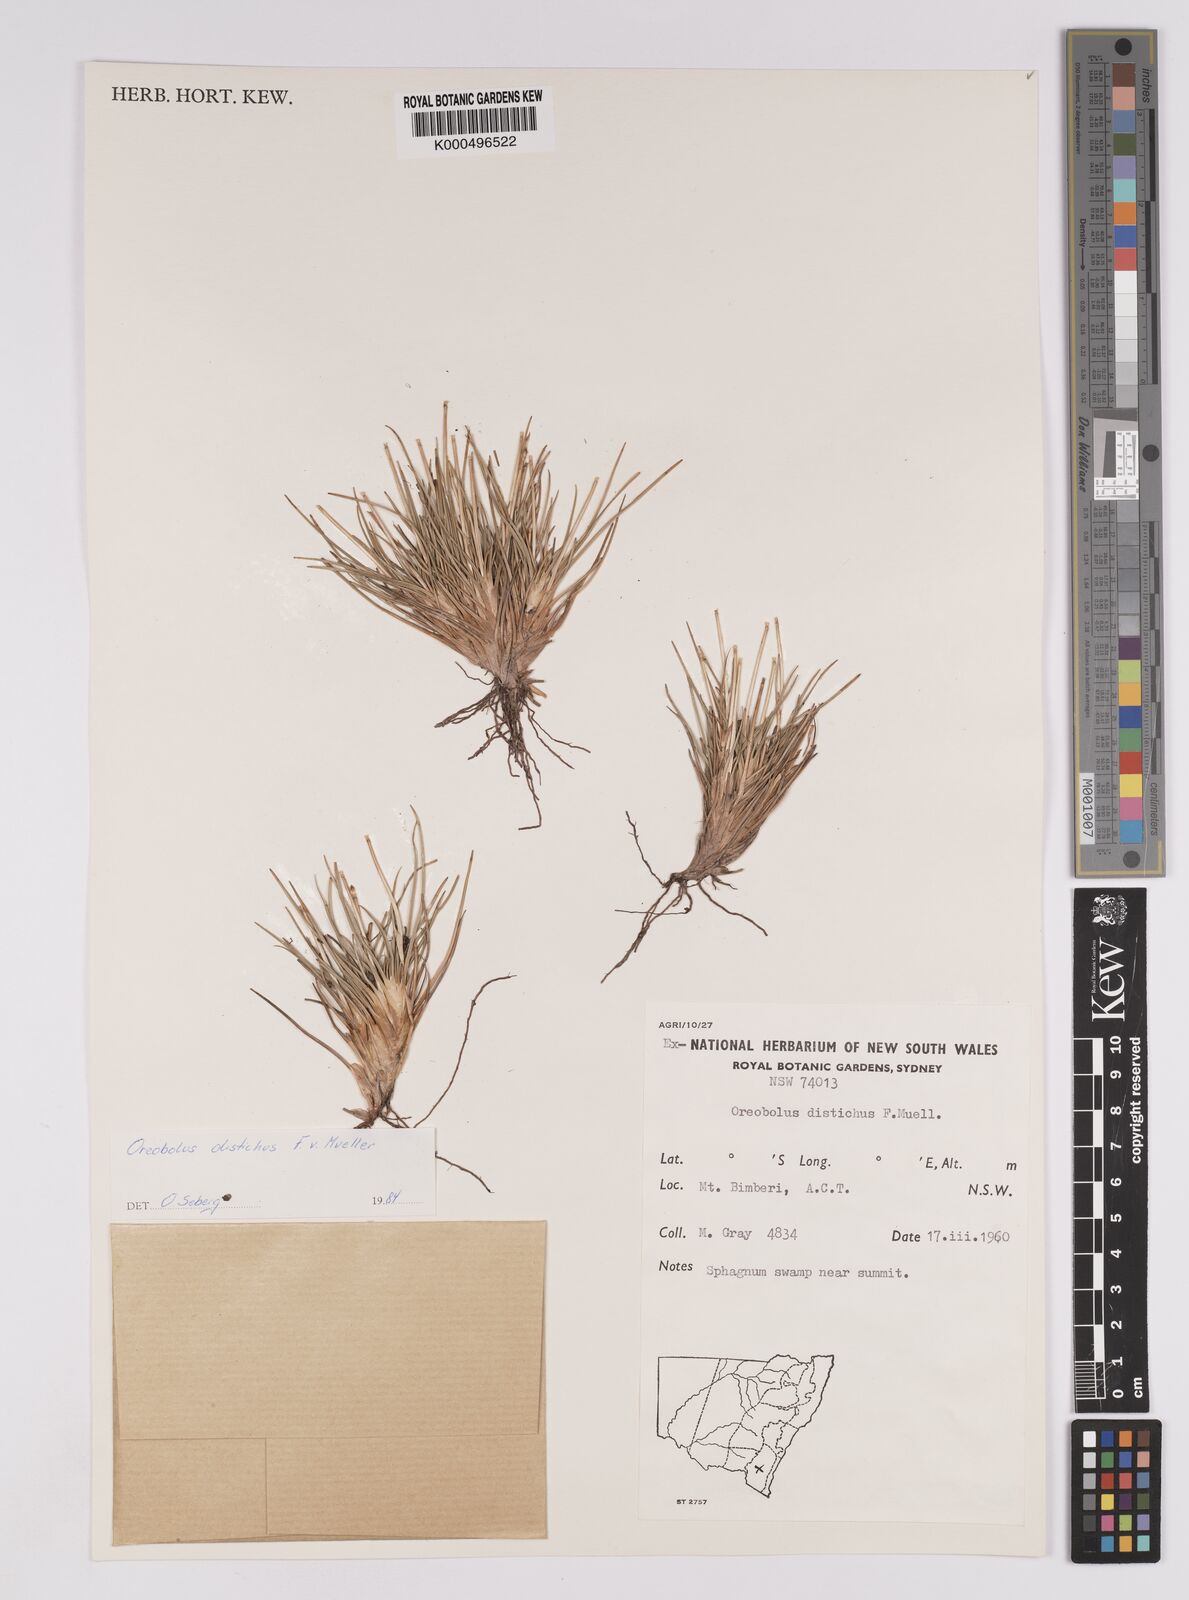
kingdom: Plantae
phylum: Tracheophyta
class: Liliopsida
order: Poales
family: Cyperaceae
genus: Oreobolus
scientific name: Oreobolus
